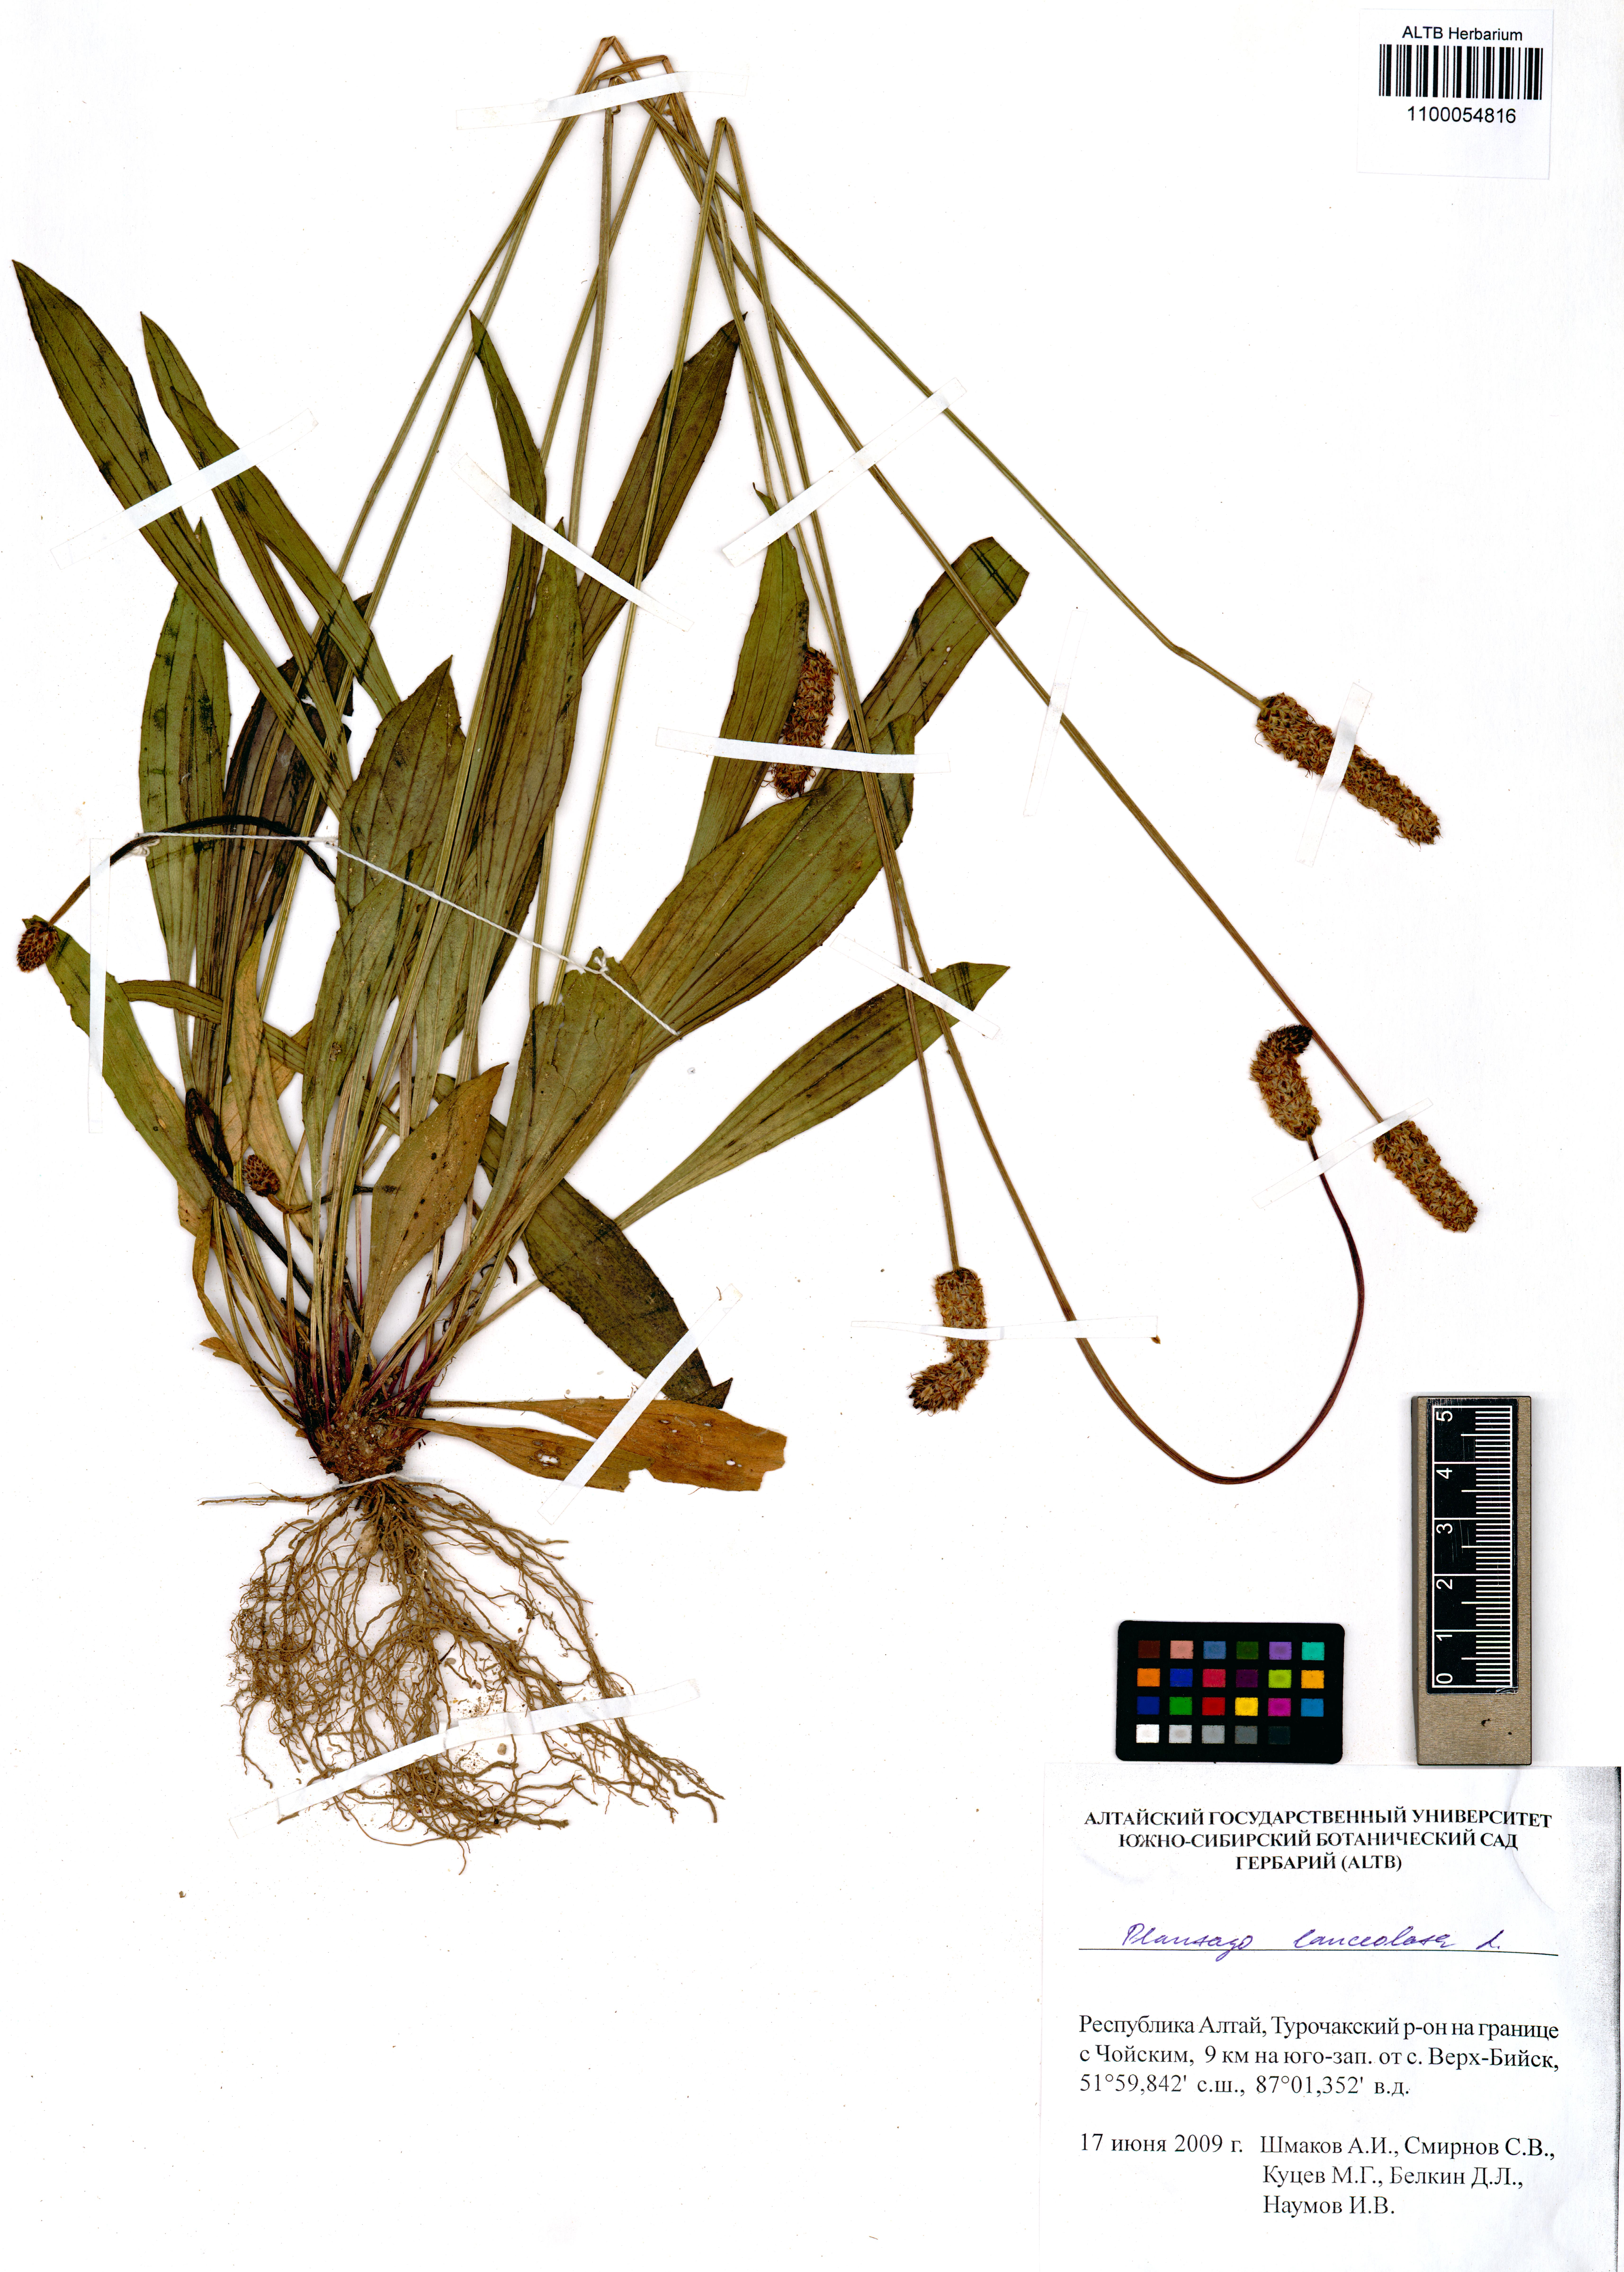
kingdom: Plantae
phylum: Tracheophyta
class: Magnoliopsida
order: Lamiales
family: Plantaginaceae
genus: Plantago
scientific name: Plantago lanceolata
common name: Ribwort plantain
